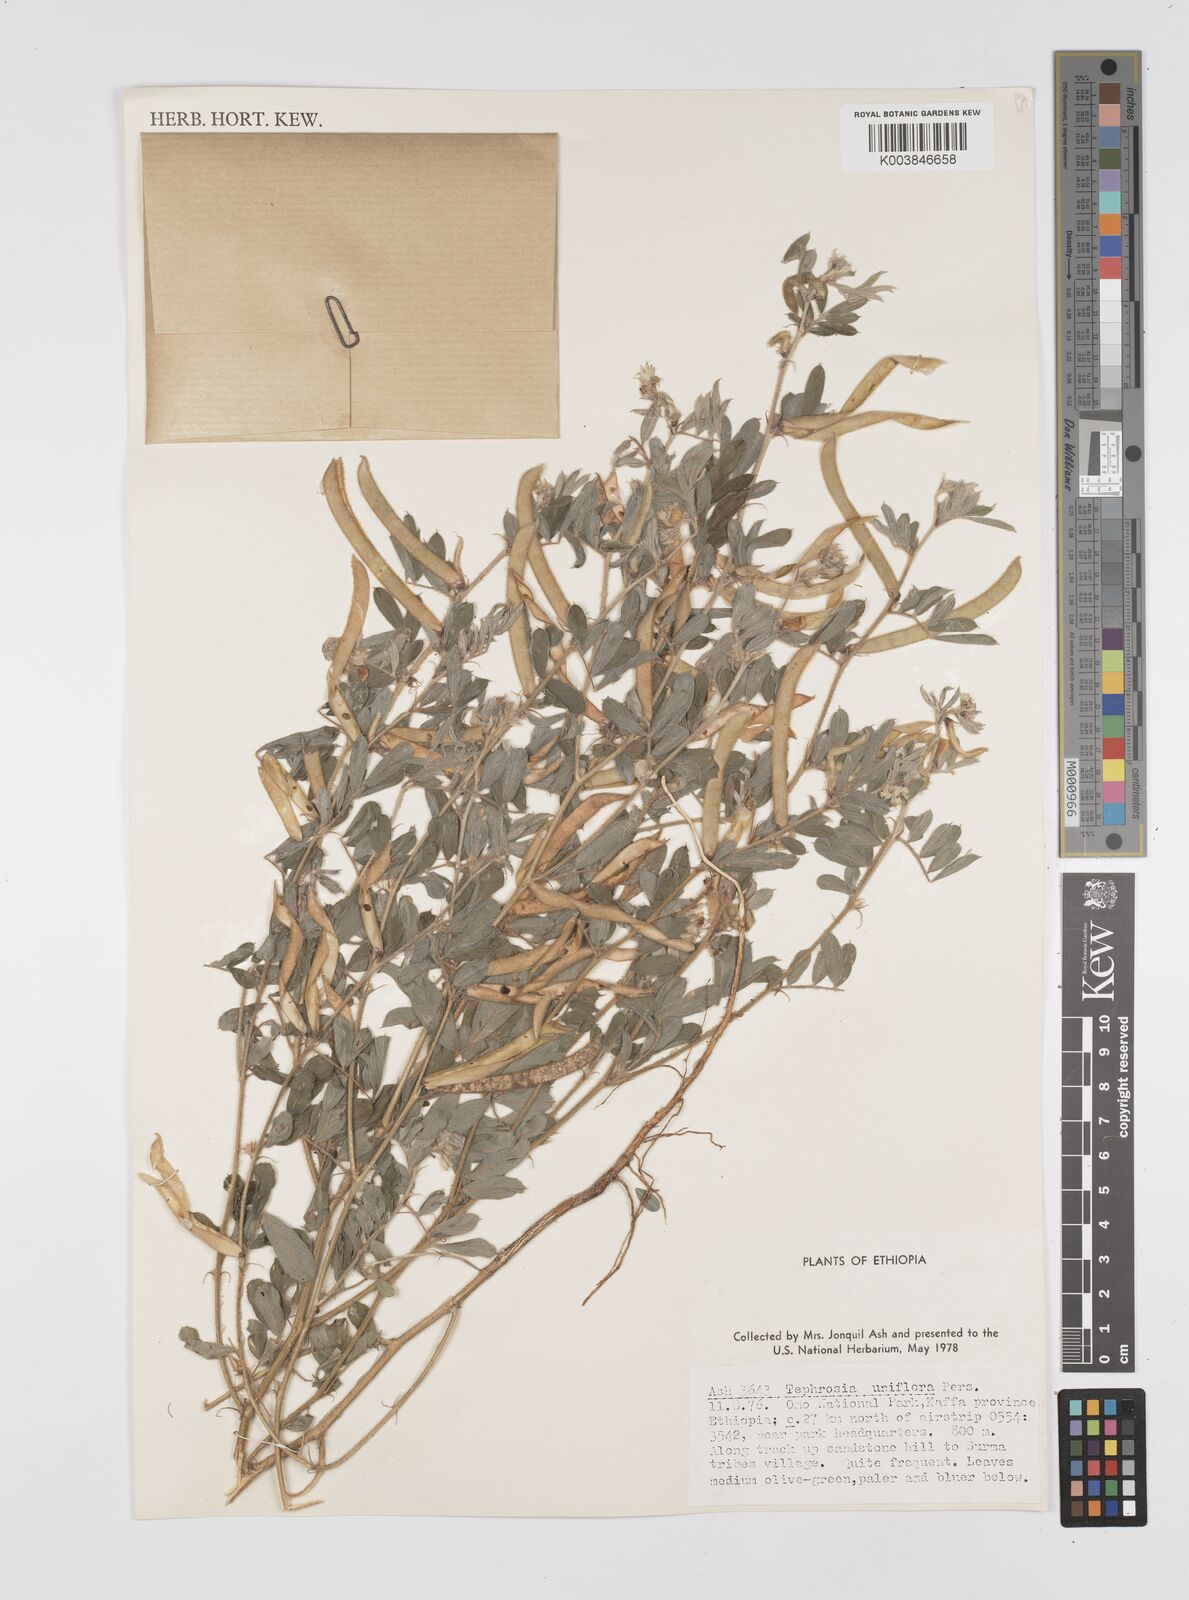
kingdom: Plantae
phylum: Tracheophyta
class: Magnoliopsida
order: Fabales
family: Fabaceae
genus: Tephrosia
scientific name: Tephrosia uniflora
